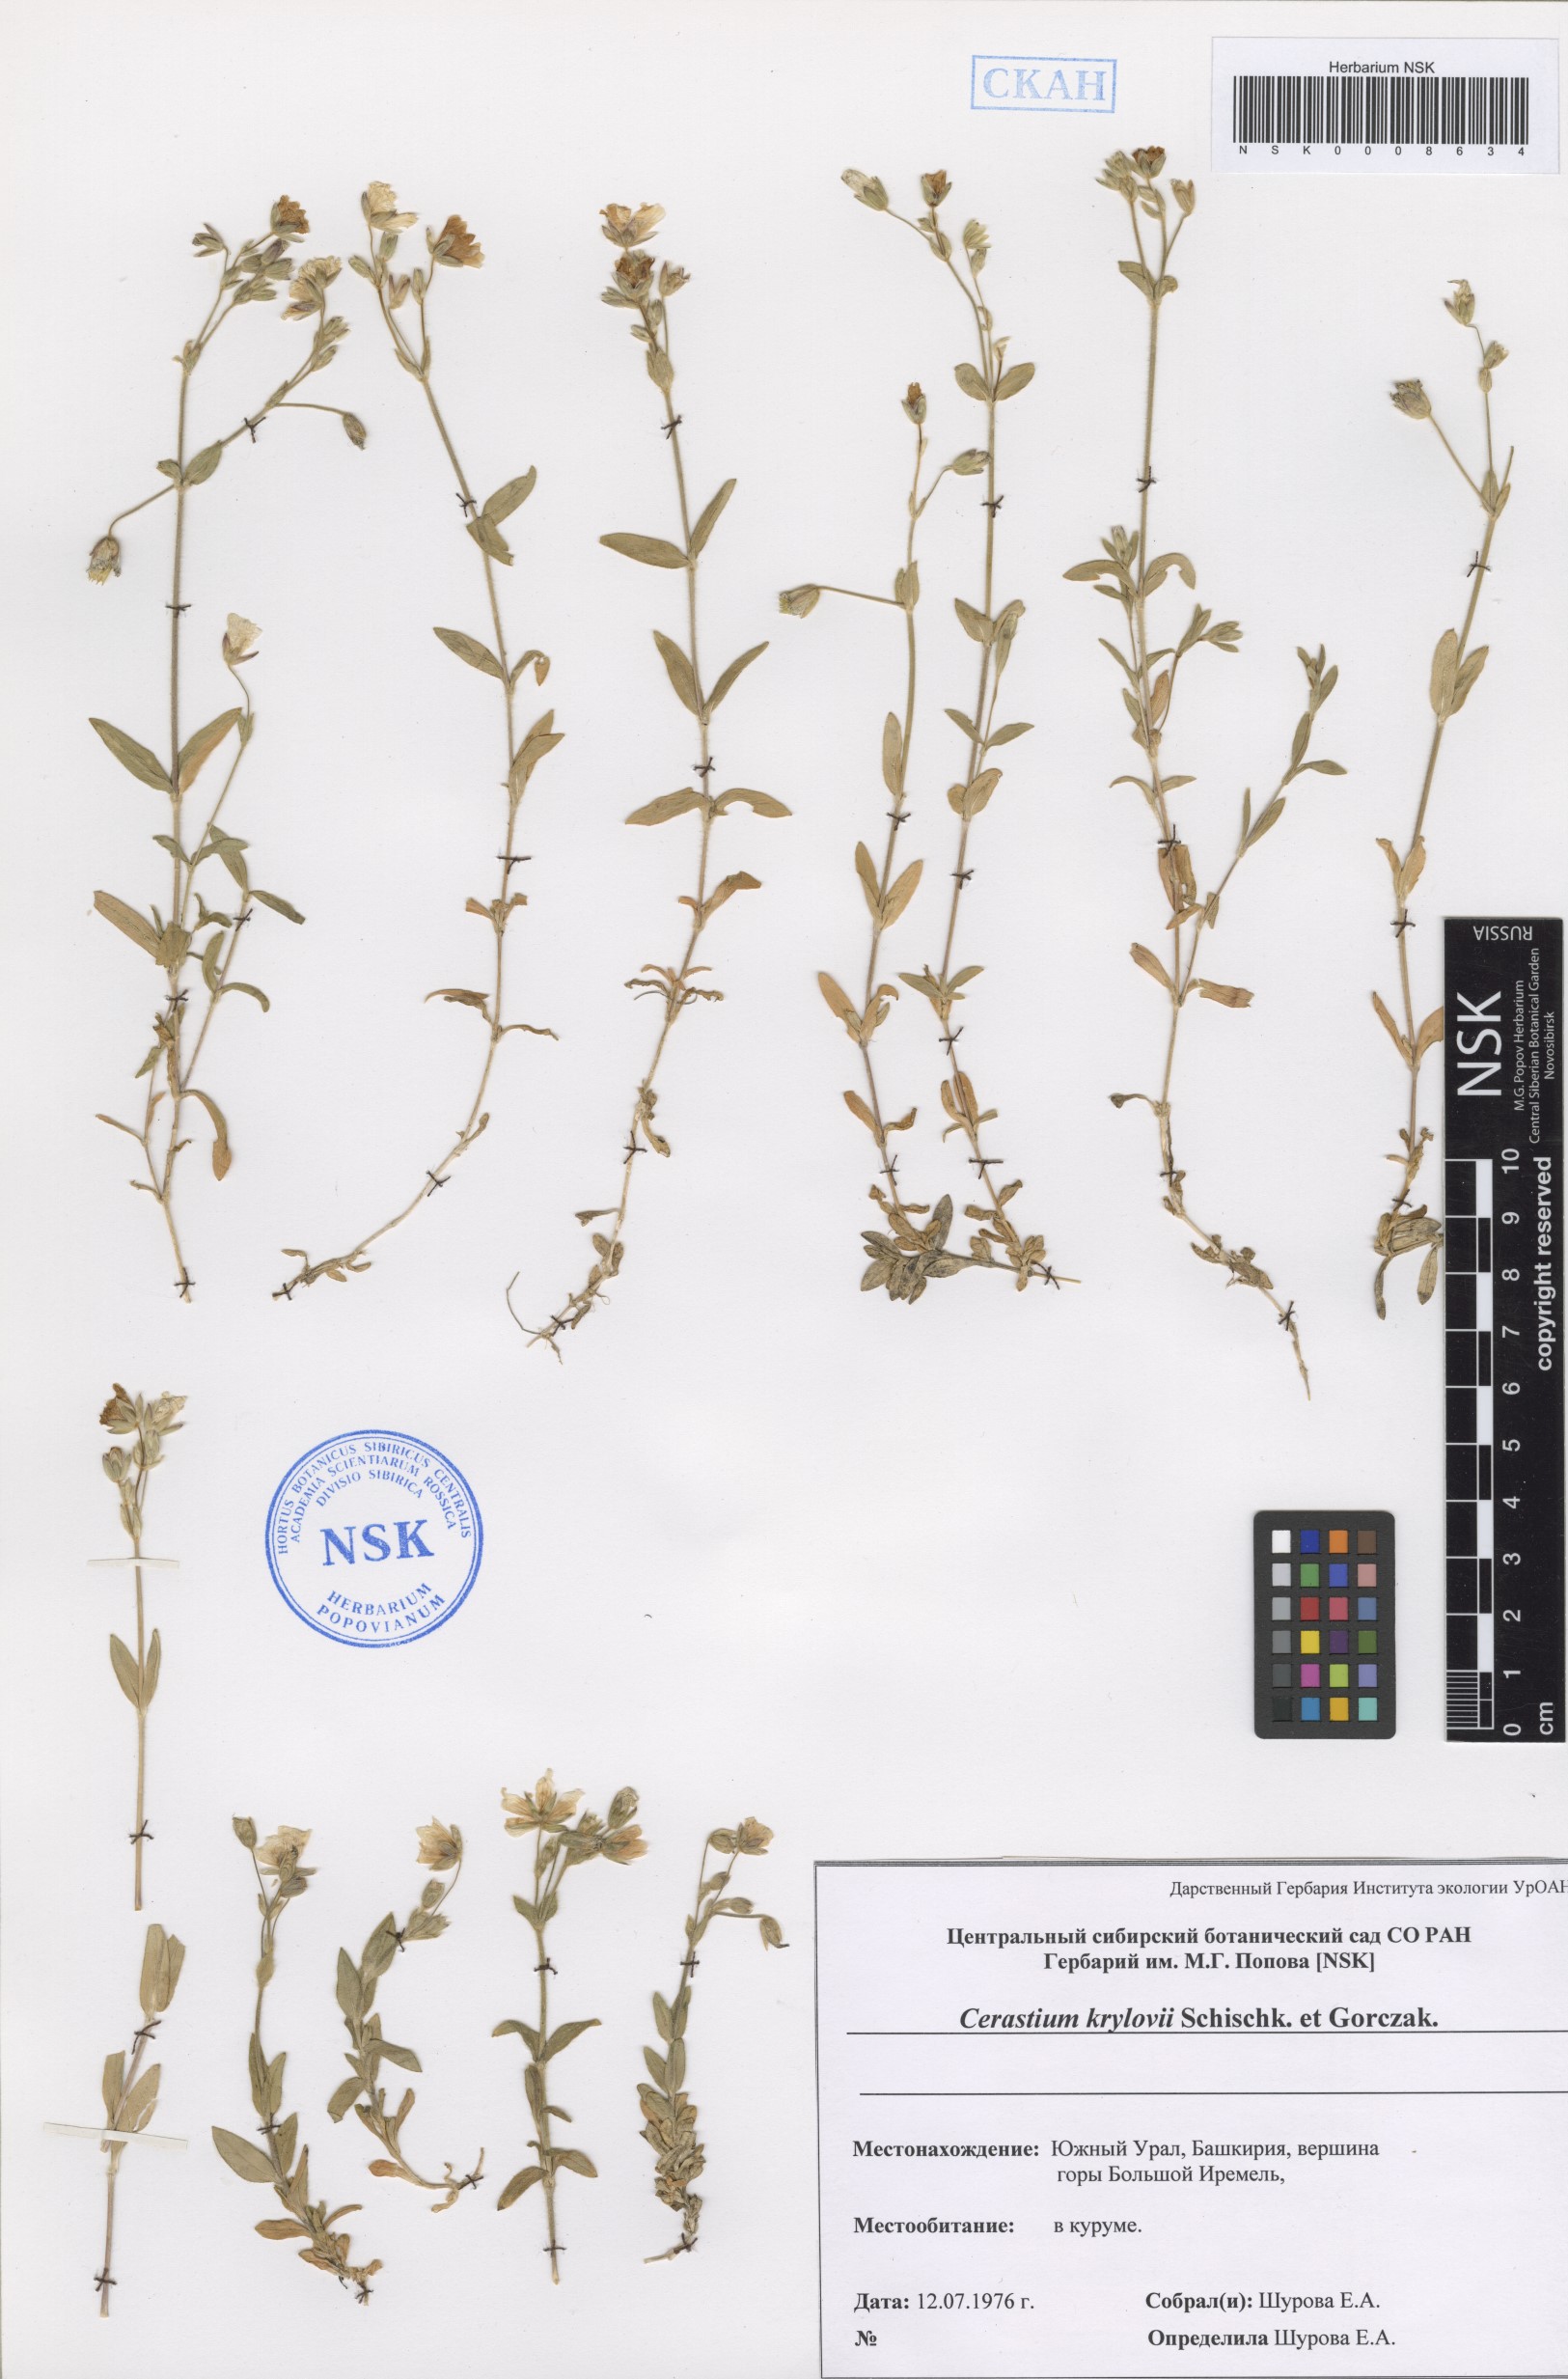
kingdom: Plantae
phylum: Tracheophyta
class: Magnoliopsida
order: Caryophyllales
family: Caryophyllaceae
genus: Cerastium
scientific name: Cerastium krylovii
